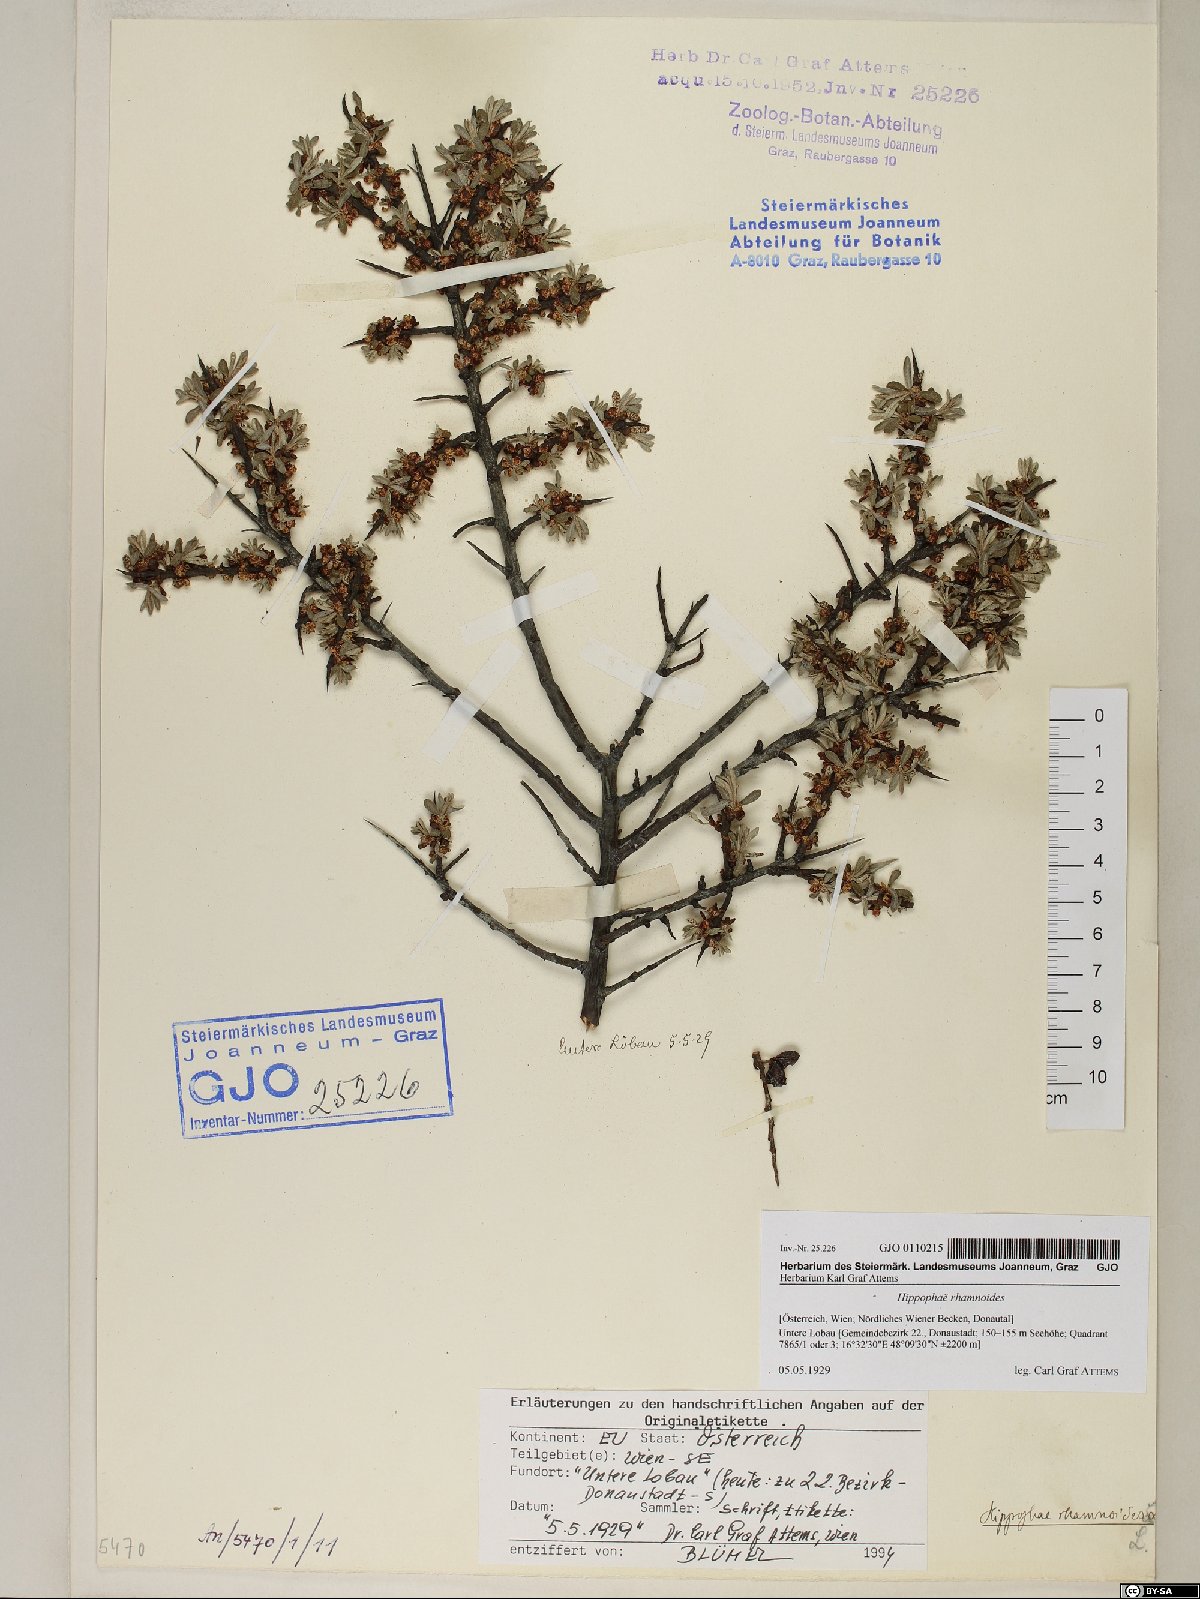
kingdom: Plantae
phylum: Tracheophyta
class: Magnoliopsida
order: Rosales
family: Elaeagnaceae
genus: Hippophae
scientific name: Hippophae rhamnoides
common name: Sea-buckthorn
